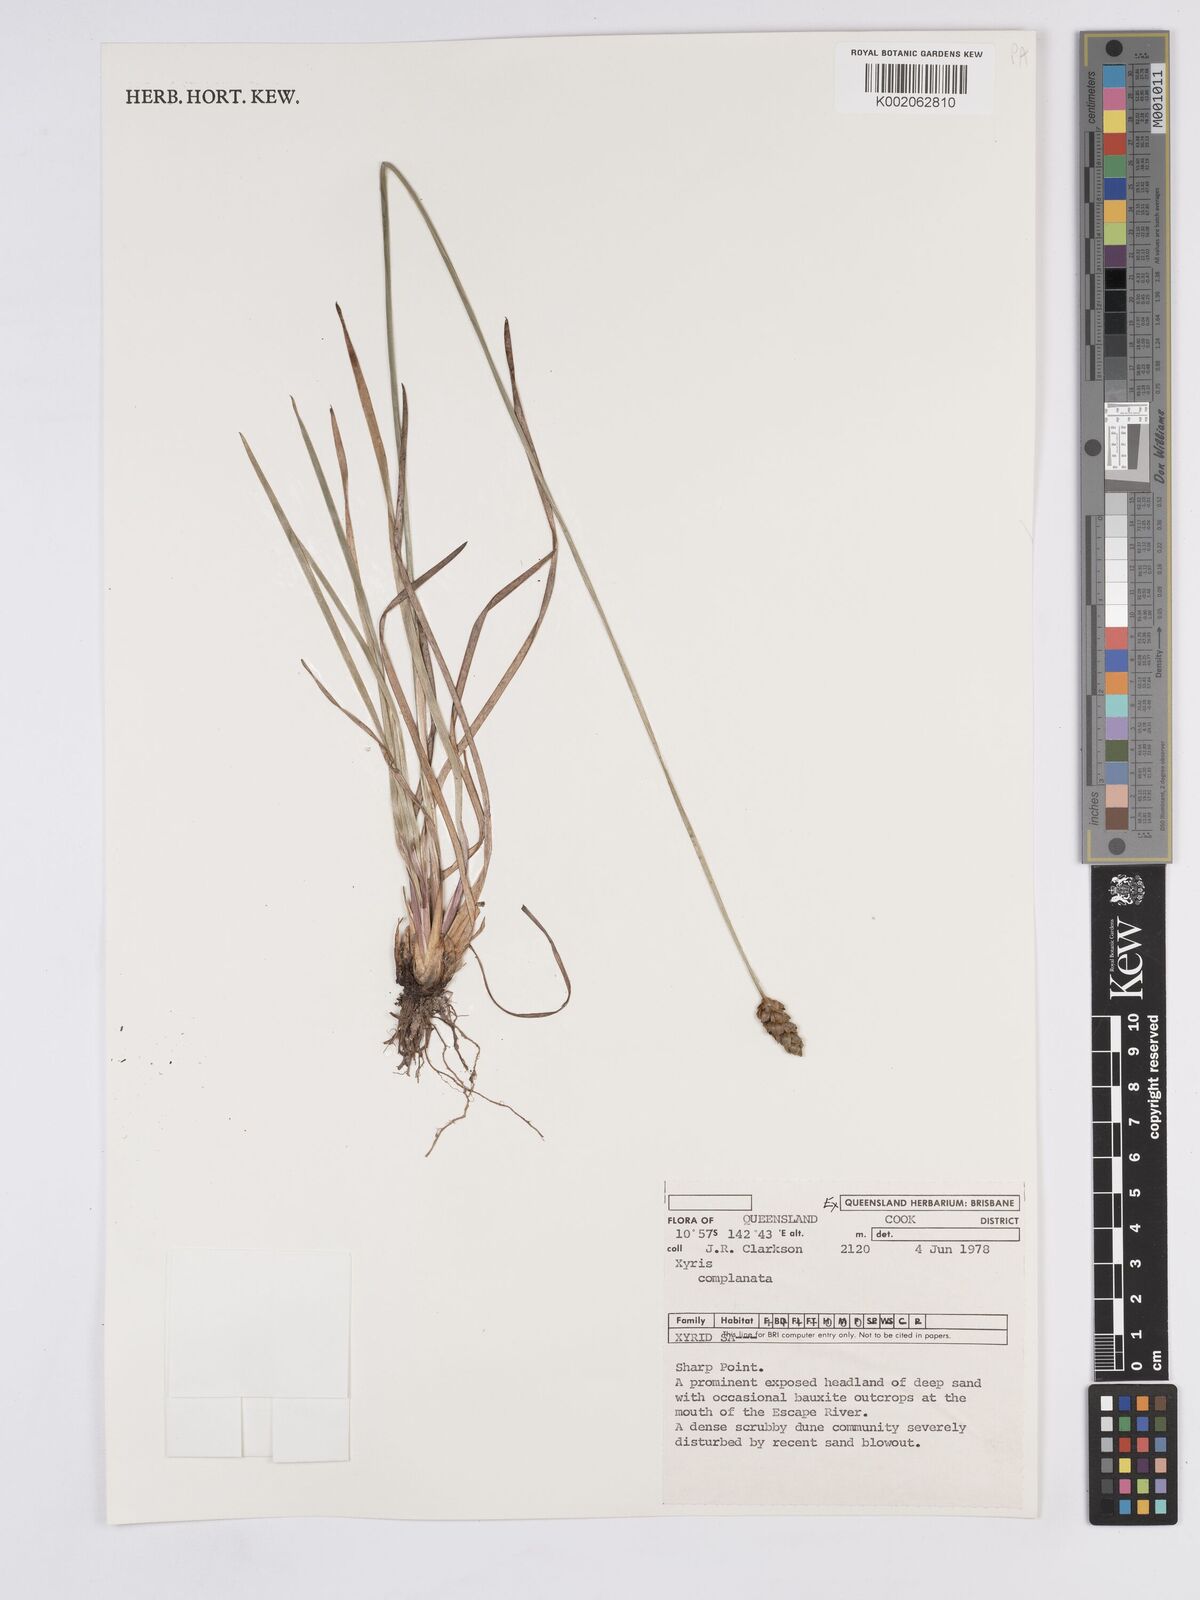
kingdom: Plantae
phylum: Tracheophyta
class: Liliopsida
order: Poales
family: Xyridaceae
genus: Xyris
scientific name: Xyris complanata
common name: Hawai'i yelloweyed grass
